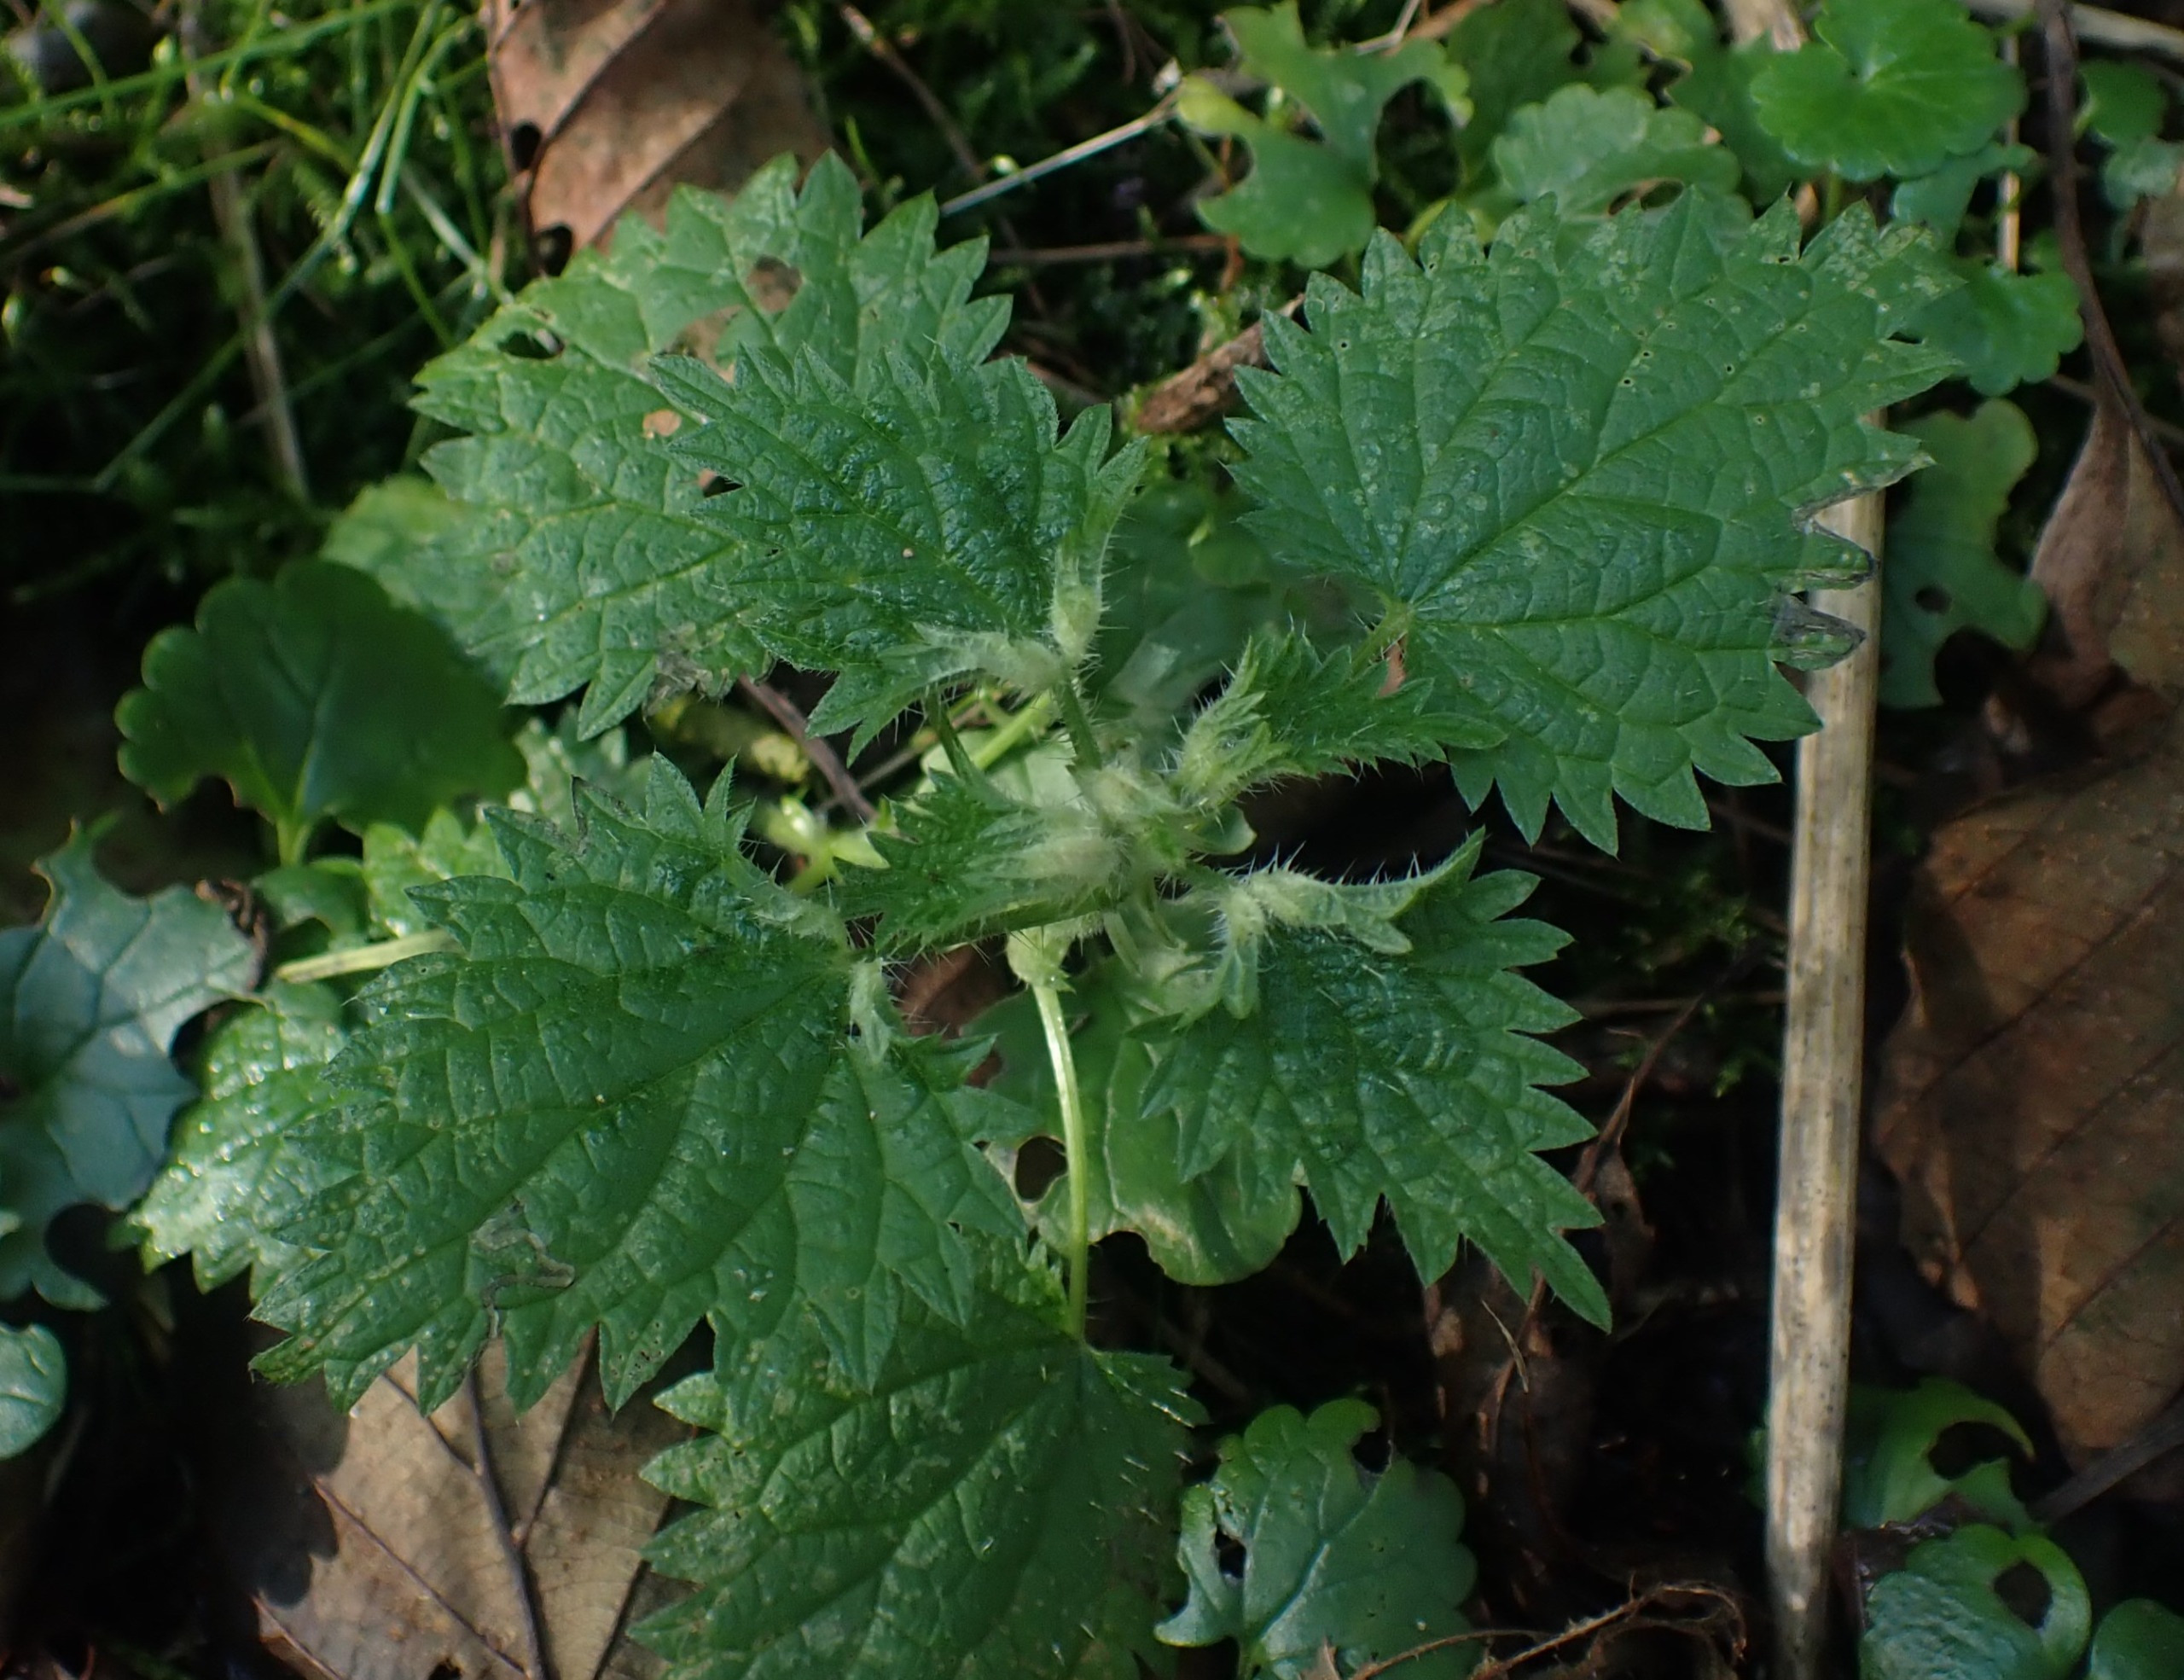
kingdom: Animalia
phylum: Arthropoda
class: Insecta
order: Diptera
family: Cecidomyiidae
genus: Dasineura
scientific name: Dasineura dioicae
